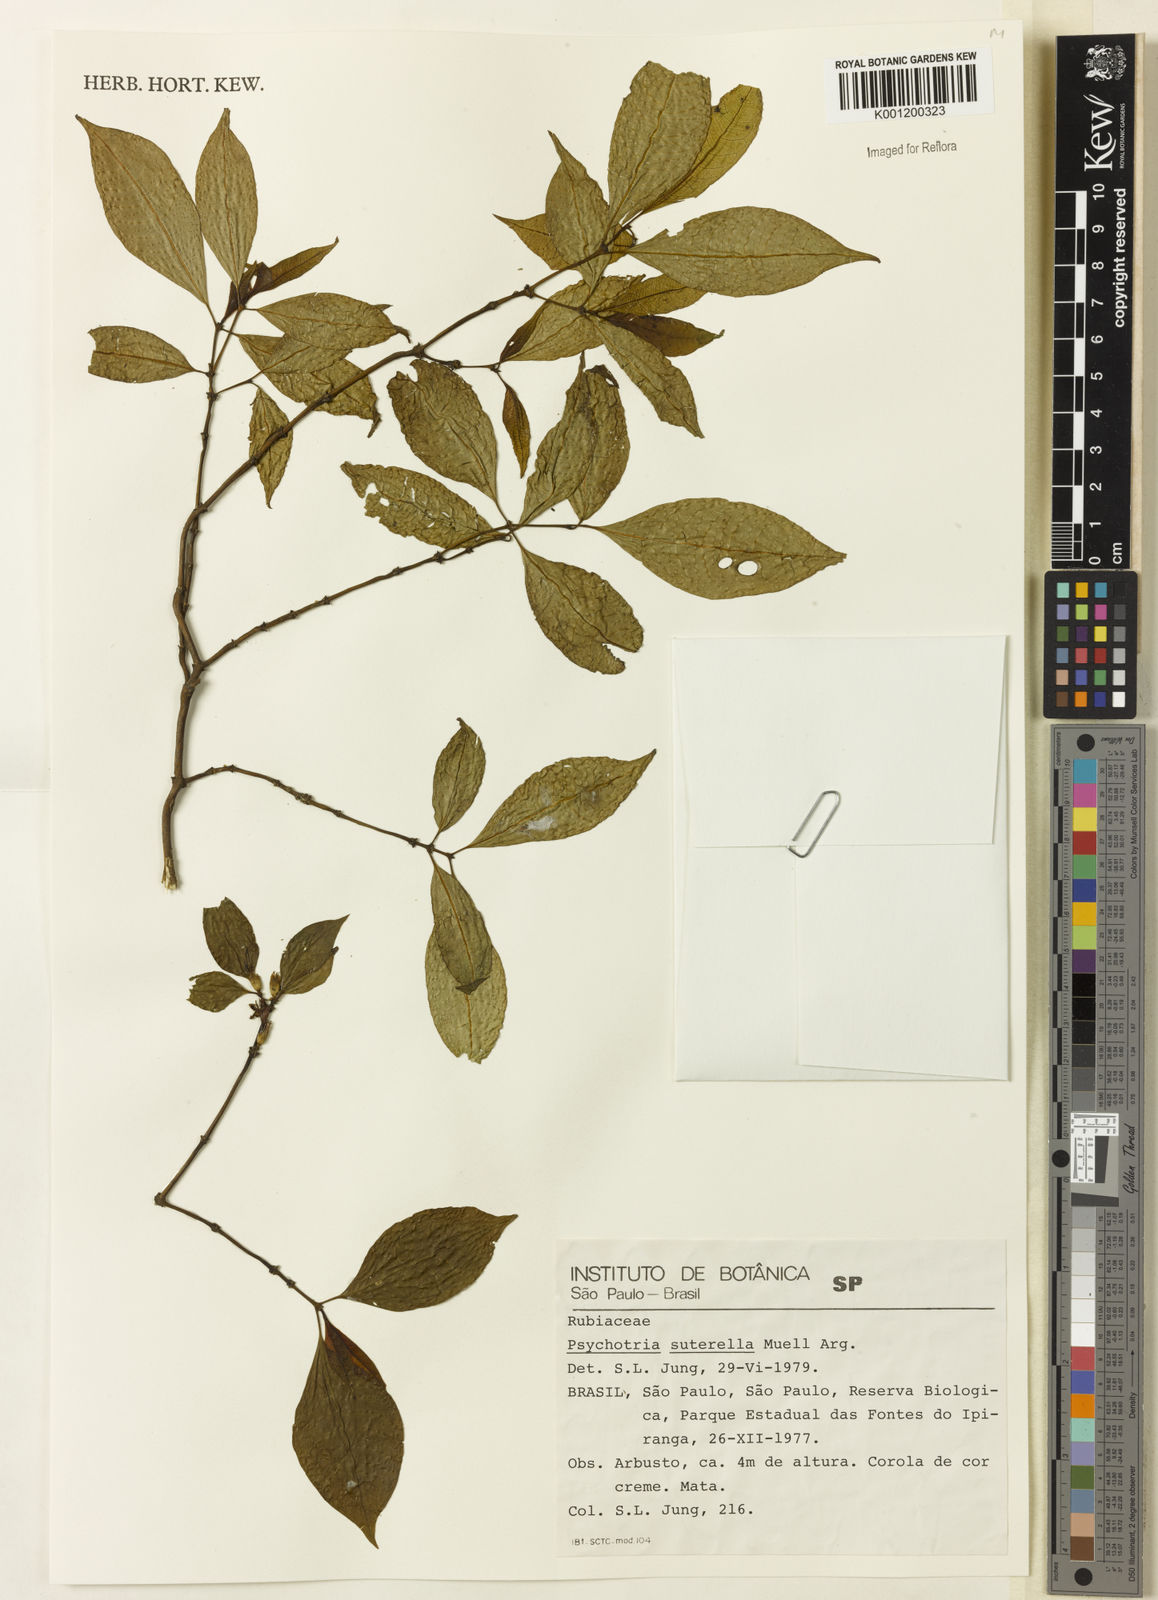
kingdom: Plantae
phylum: Tracheophyta
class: Magnoliopsida
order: Gentianales
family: Rubiaceae
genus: Psychotria
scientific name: Psychotria
